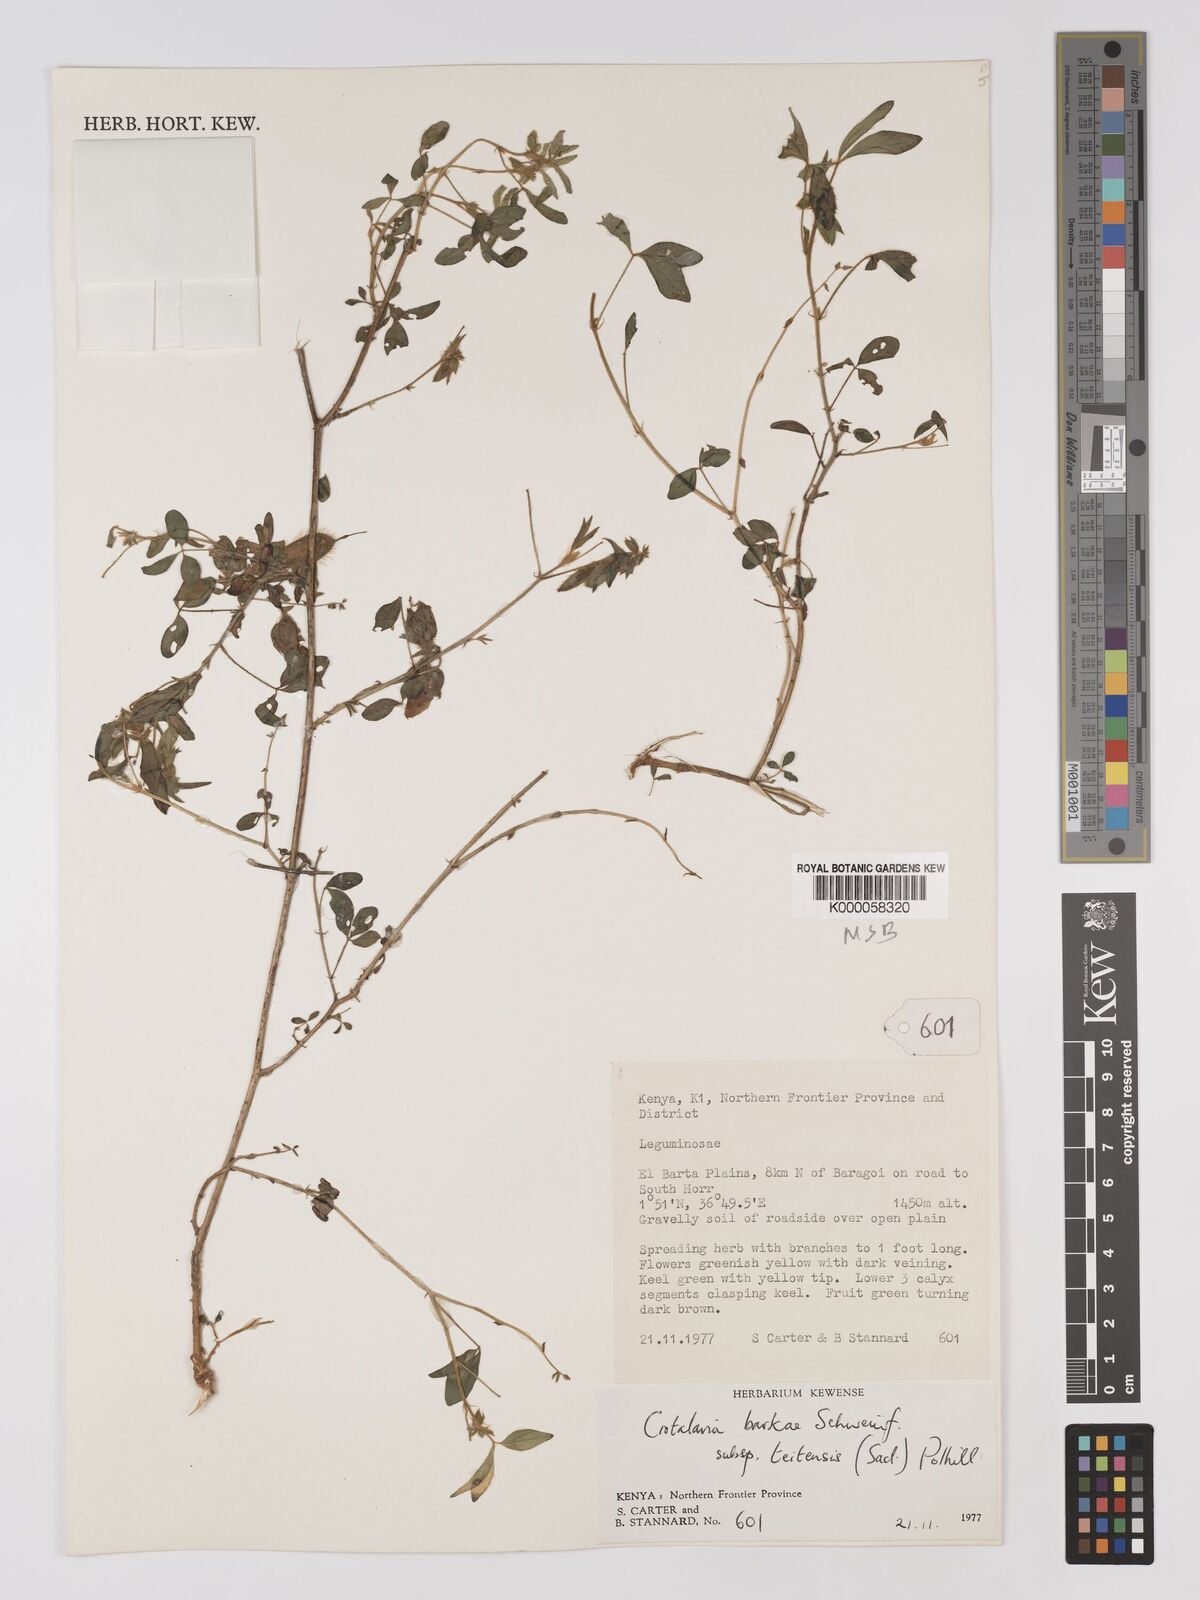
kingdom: Plantae
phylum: Tracheophyta
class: Magnoliopsida
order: Fabales
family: Fabaceae
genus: Crotalaria
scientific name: Crotalaria barkae
